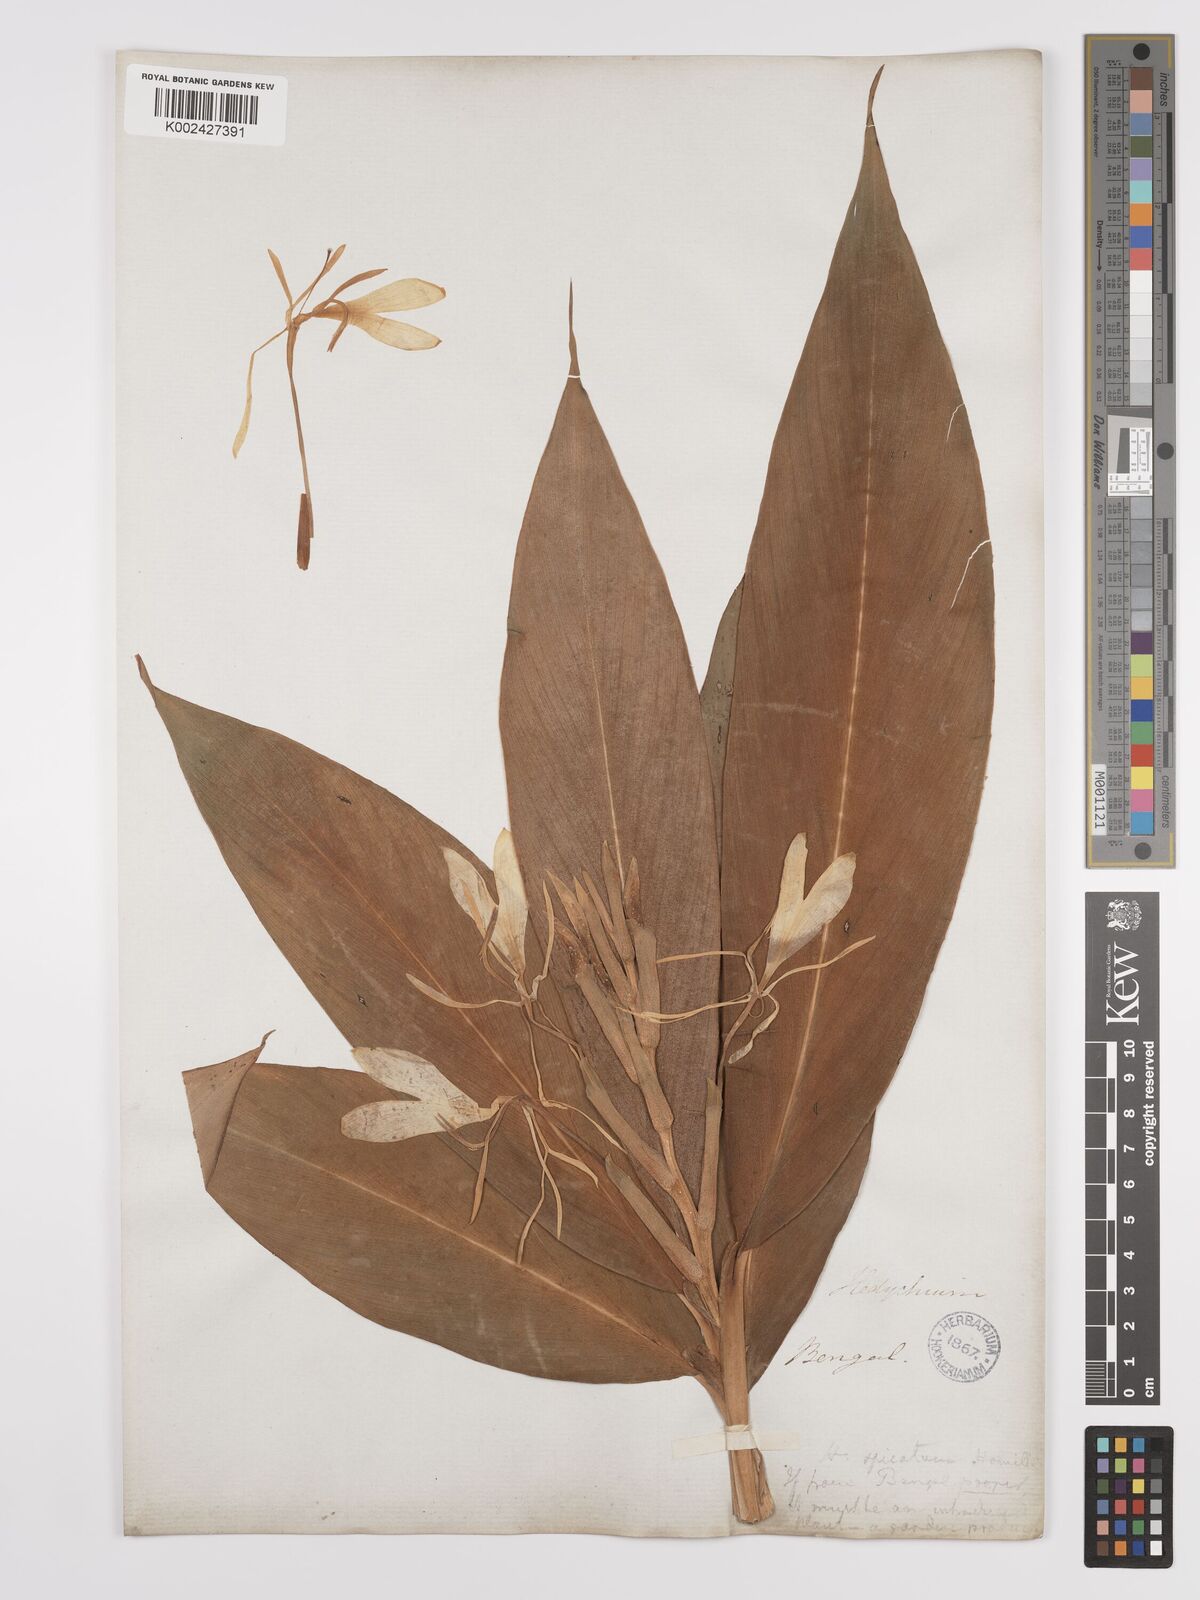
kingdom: Plantae
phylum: Tracheophyta
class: Liliopsida
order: Zingiberales
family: Zingiberaceae
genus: Hedychium
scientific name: Hedychium spicatum
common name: Spiked ginger-lily
